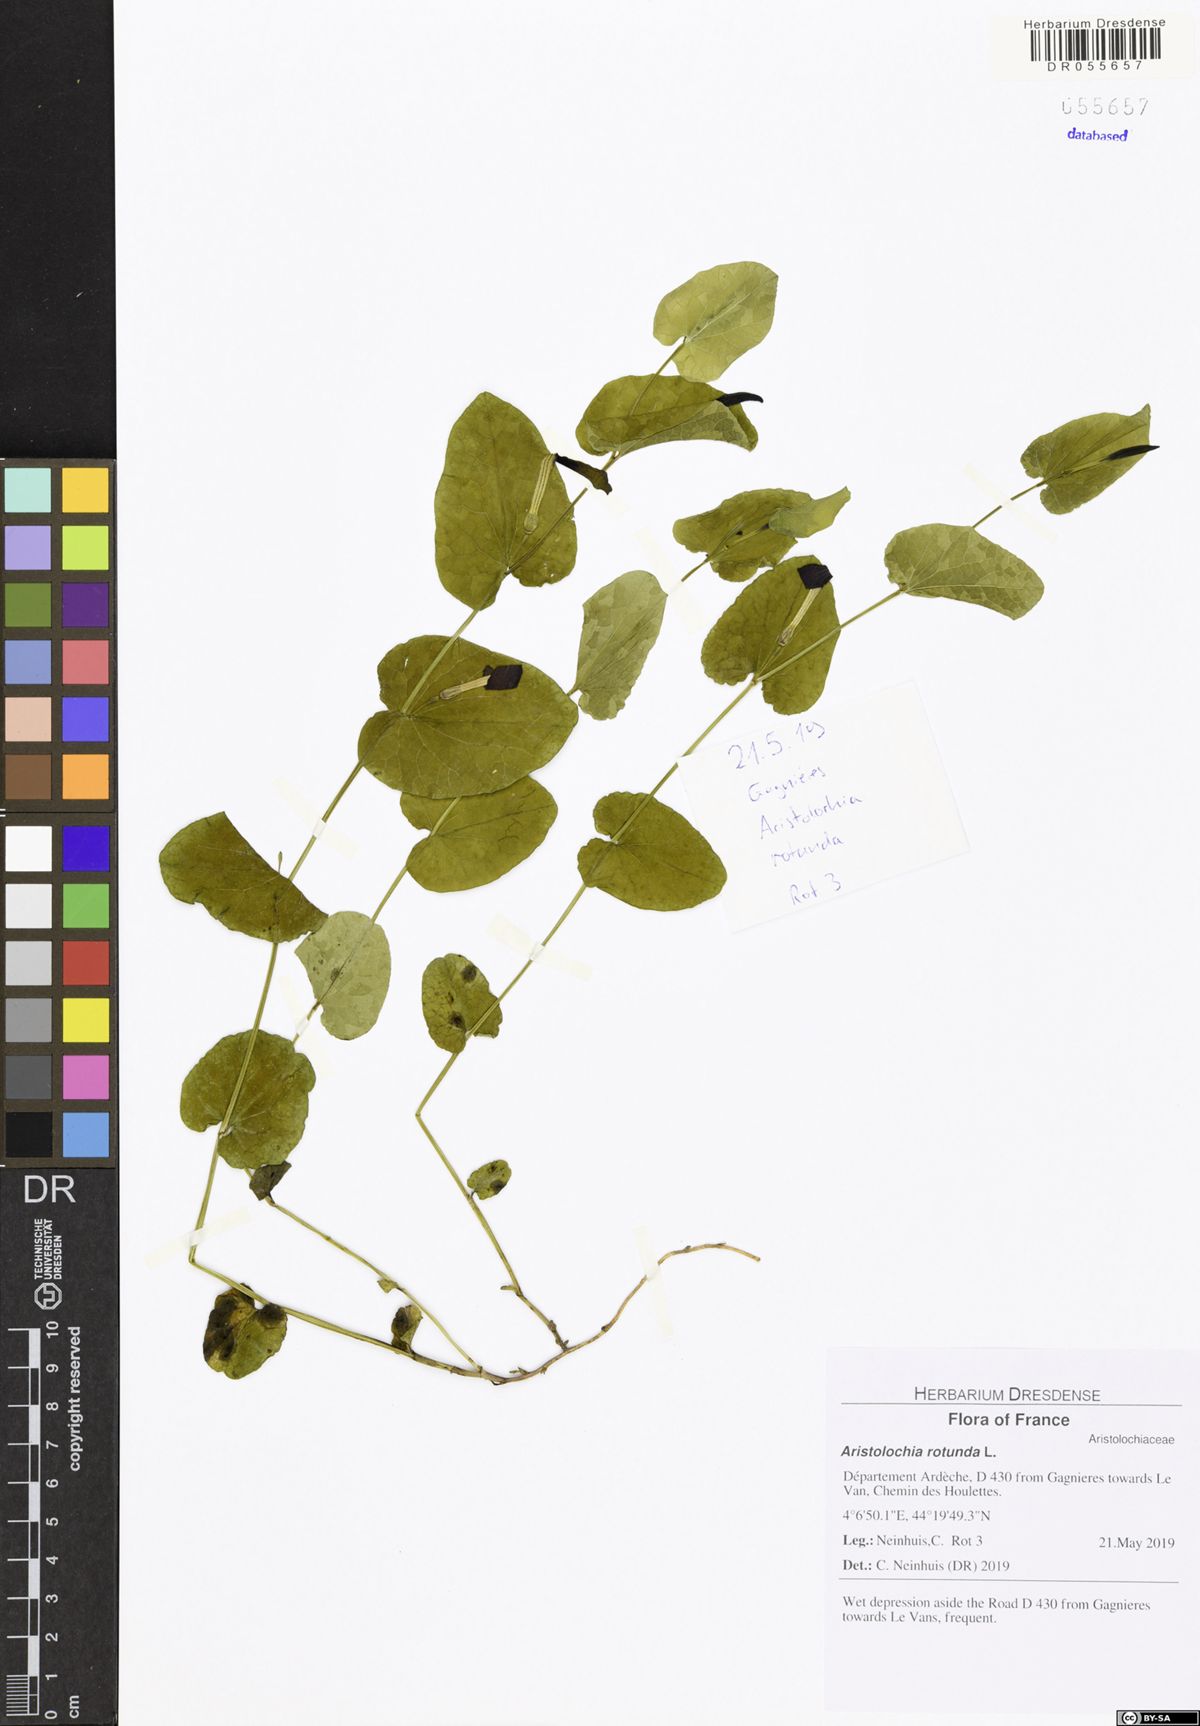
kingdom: Plantae
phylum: Tracheophyta
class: Magnoliopsida
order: Piperales
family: Aristolochiaceae
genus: Aristolochia
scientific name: Aristolochia rotunda
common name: Smearwort
